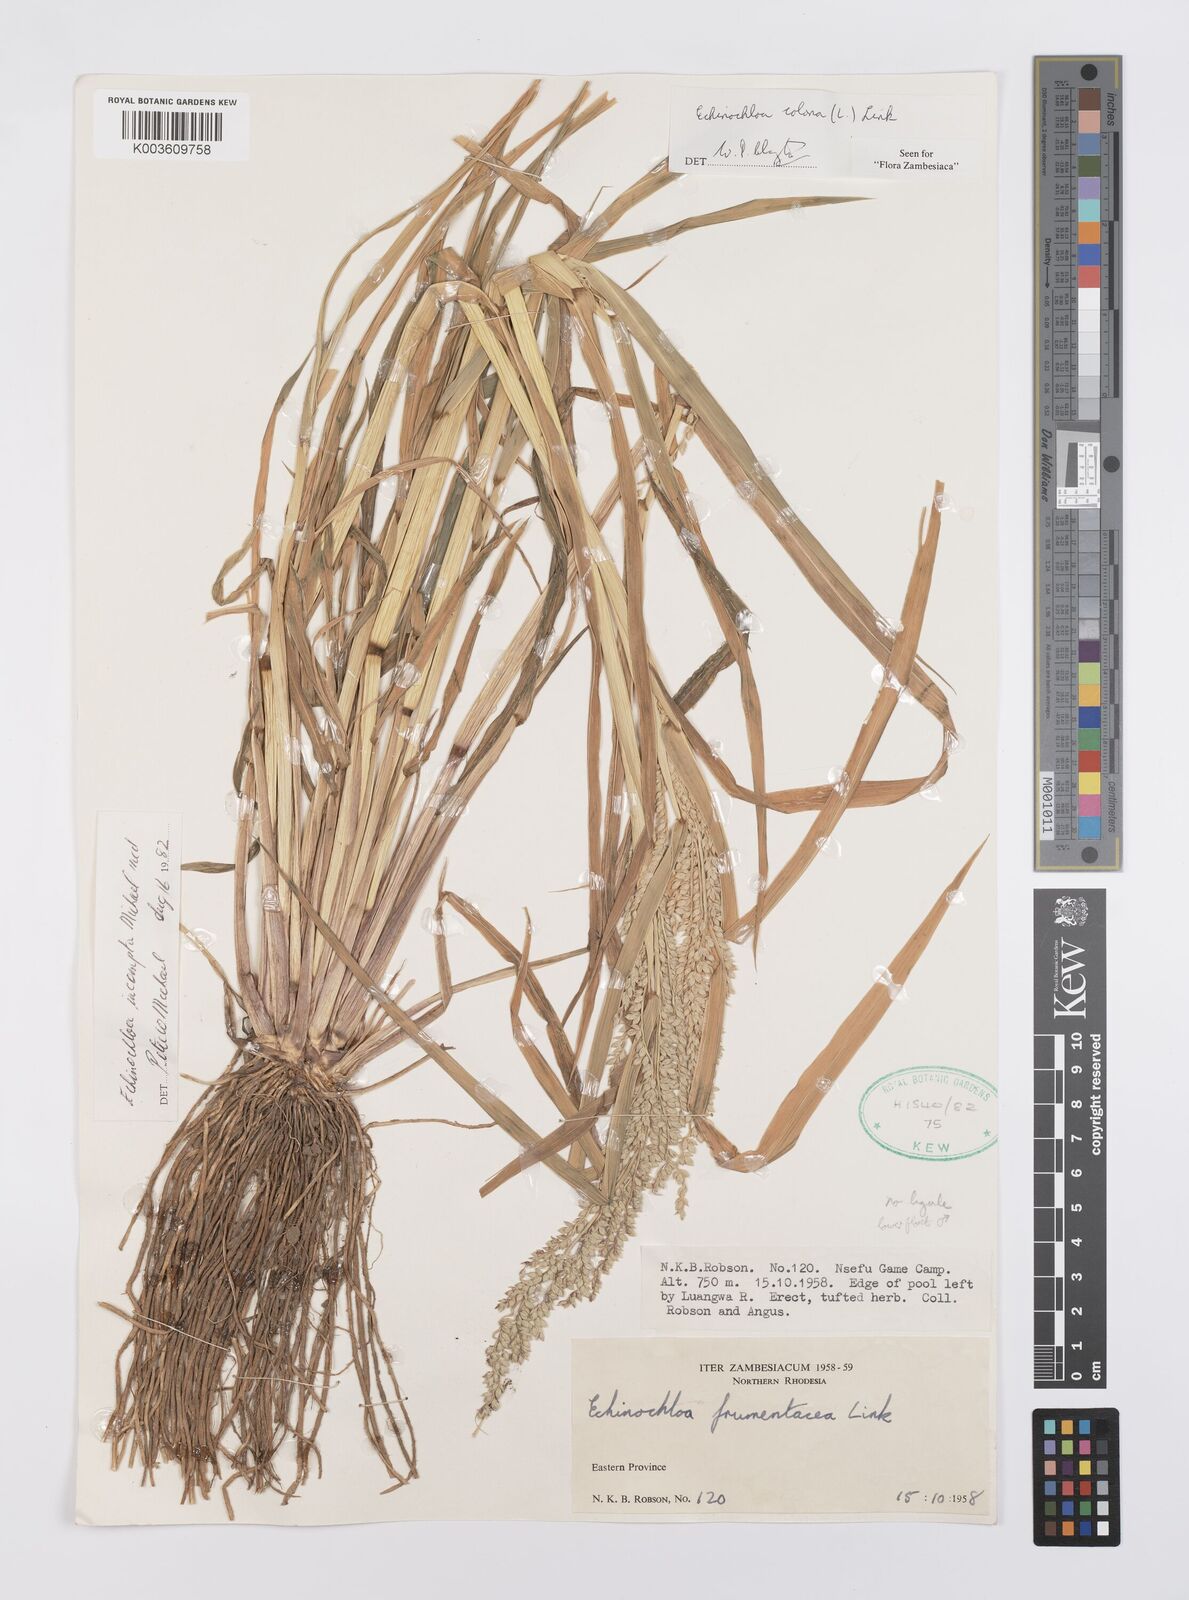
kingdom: Plantae
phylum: Tracheophyta
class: Liliopsida
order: Poales
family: Poaceae
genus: Echinochloa
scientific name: Echinochloa colonum
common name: Jungle rice
